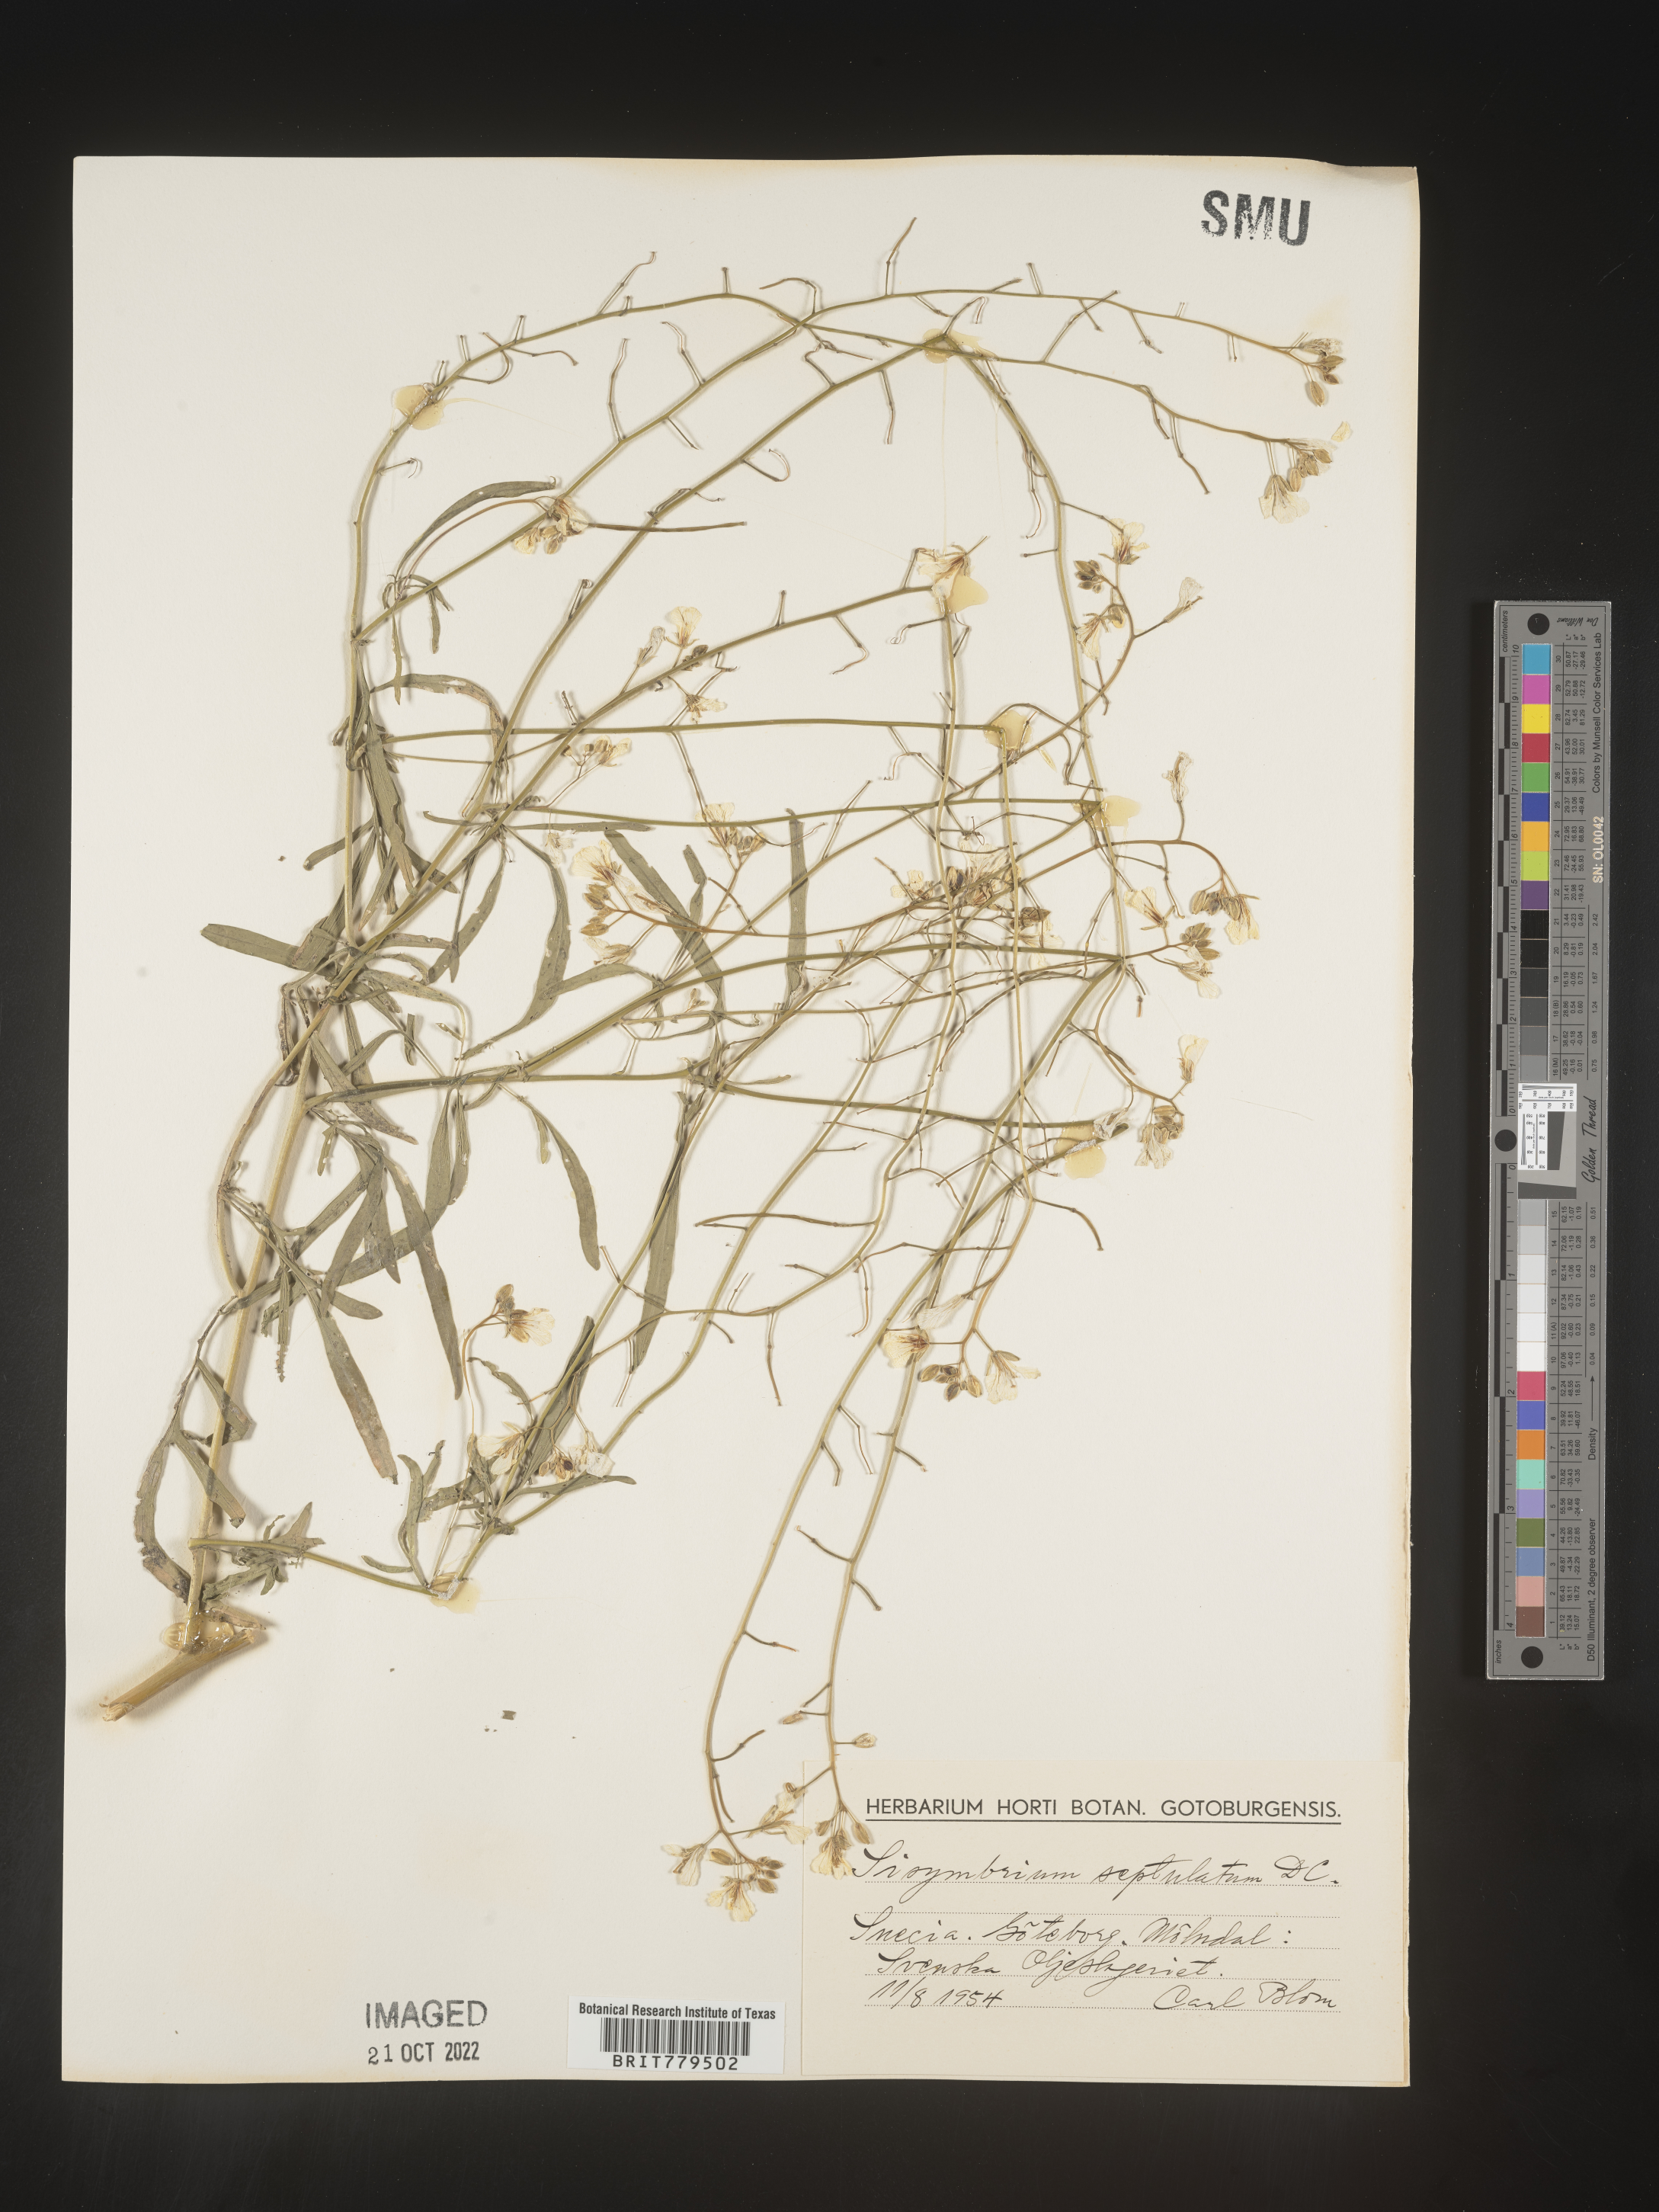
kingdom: Plantae
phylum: Tracheophyta
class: Magnoliopsida
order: Brassicales
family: Brassicaceae
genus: Sisymbrium
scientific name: Sisymbrium
